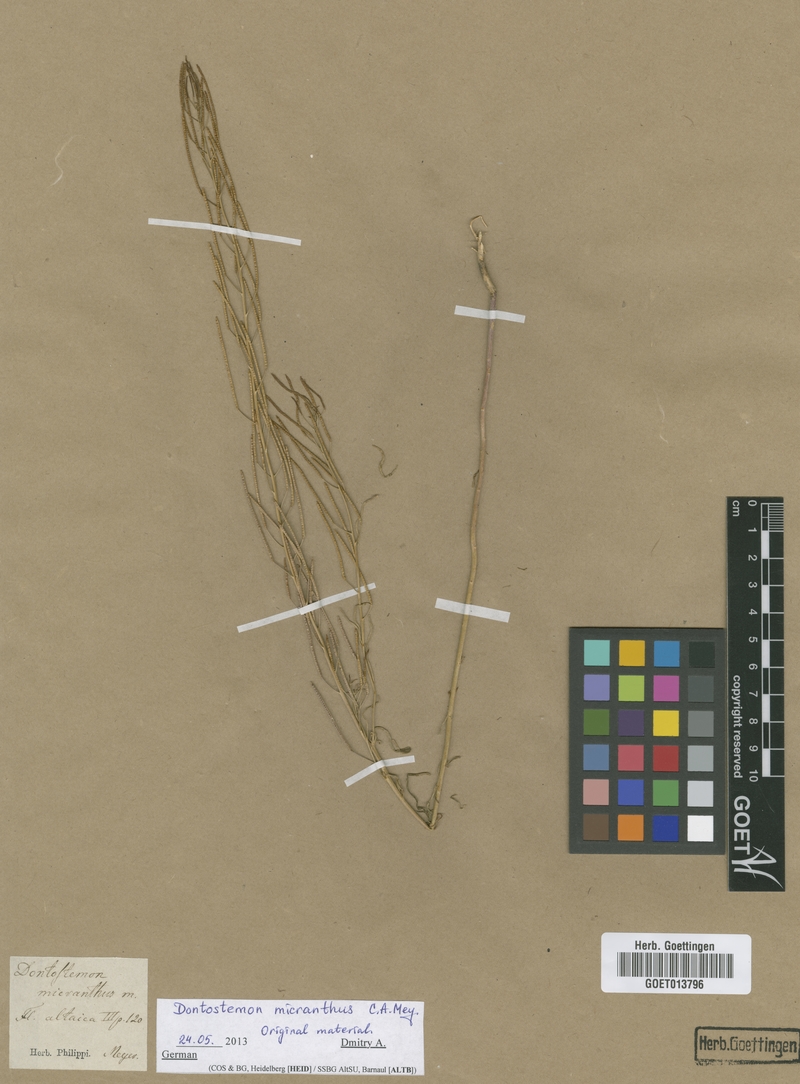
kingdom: Plantae
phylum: Tracheophyta
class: Magnoliopsida
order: Brassicales
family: Brassicaceae
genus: Dontostemon
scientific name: Dontostemon micranthus
